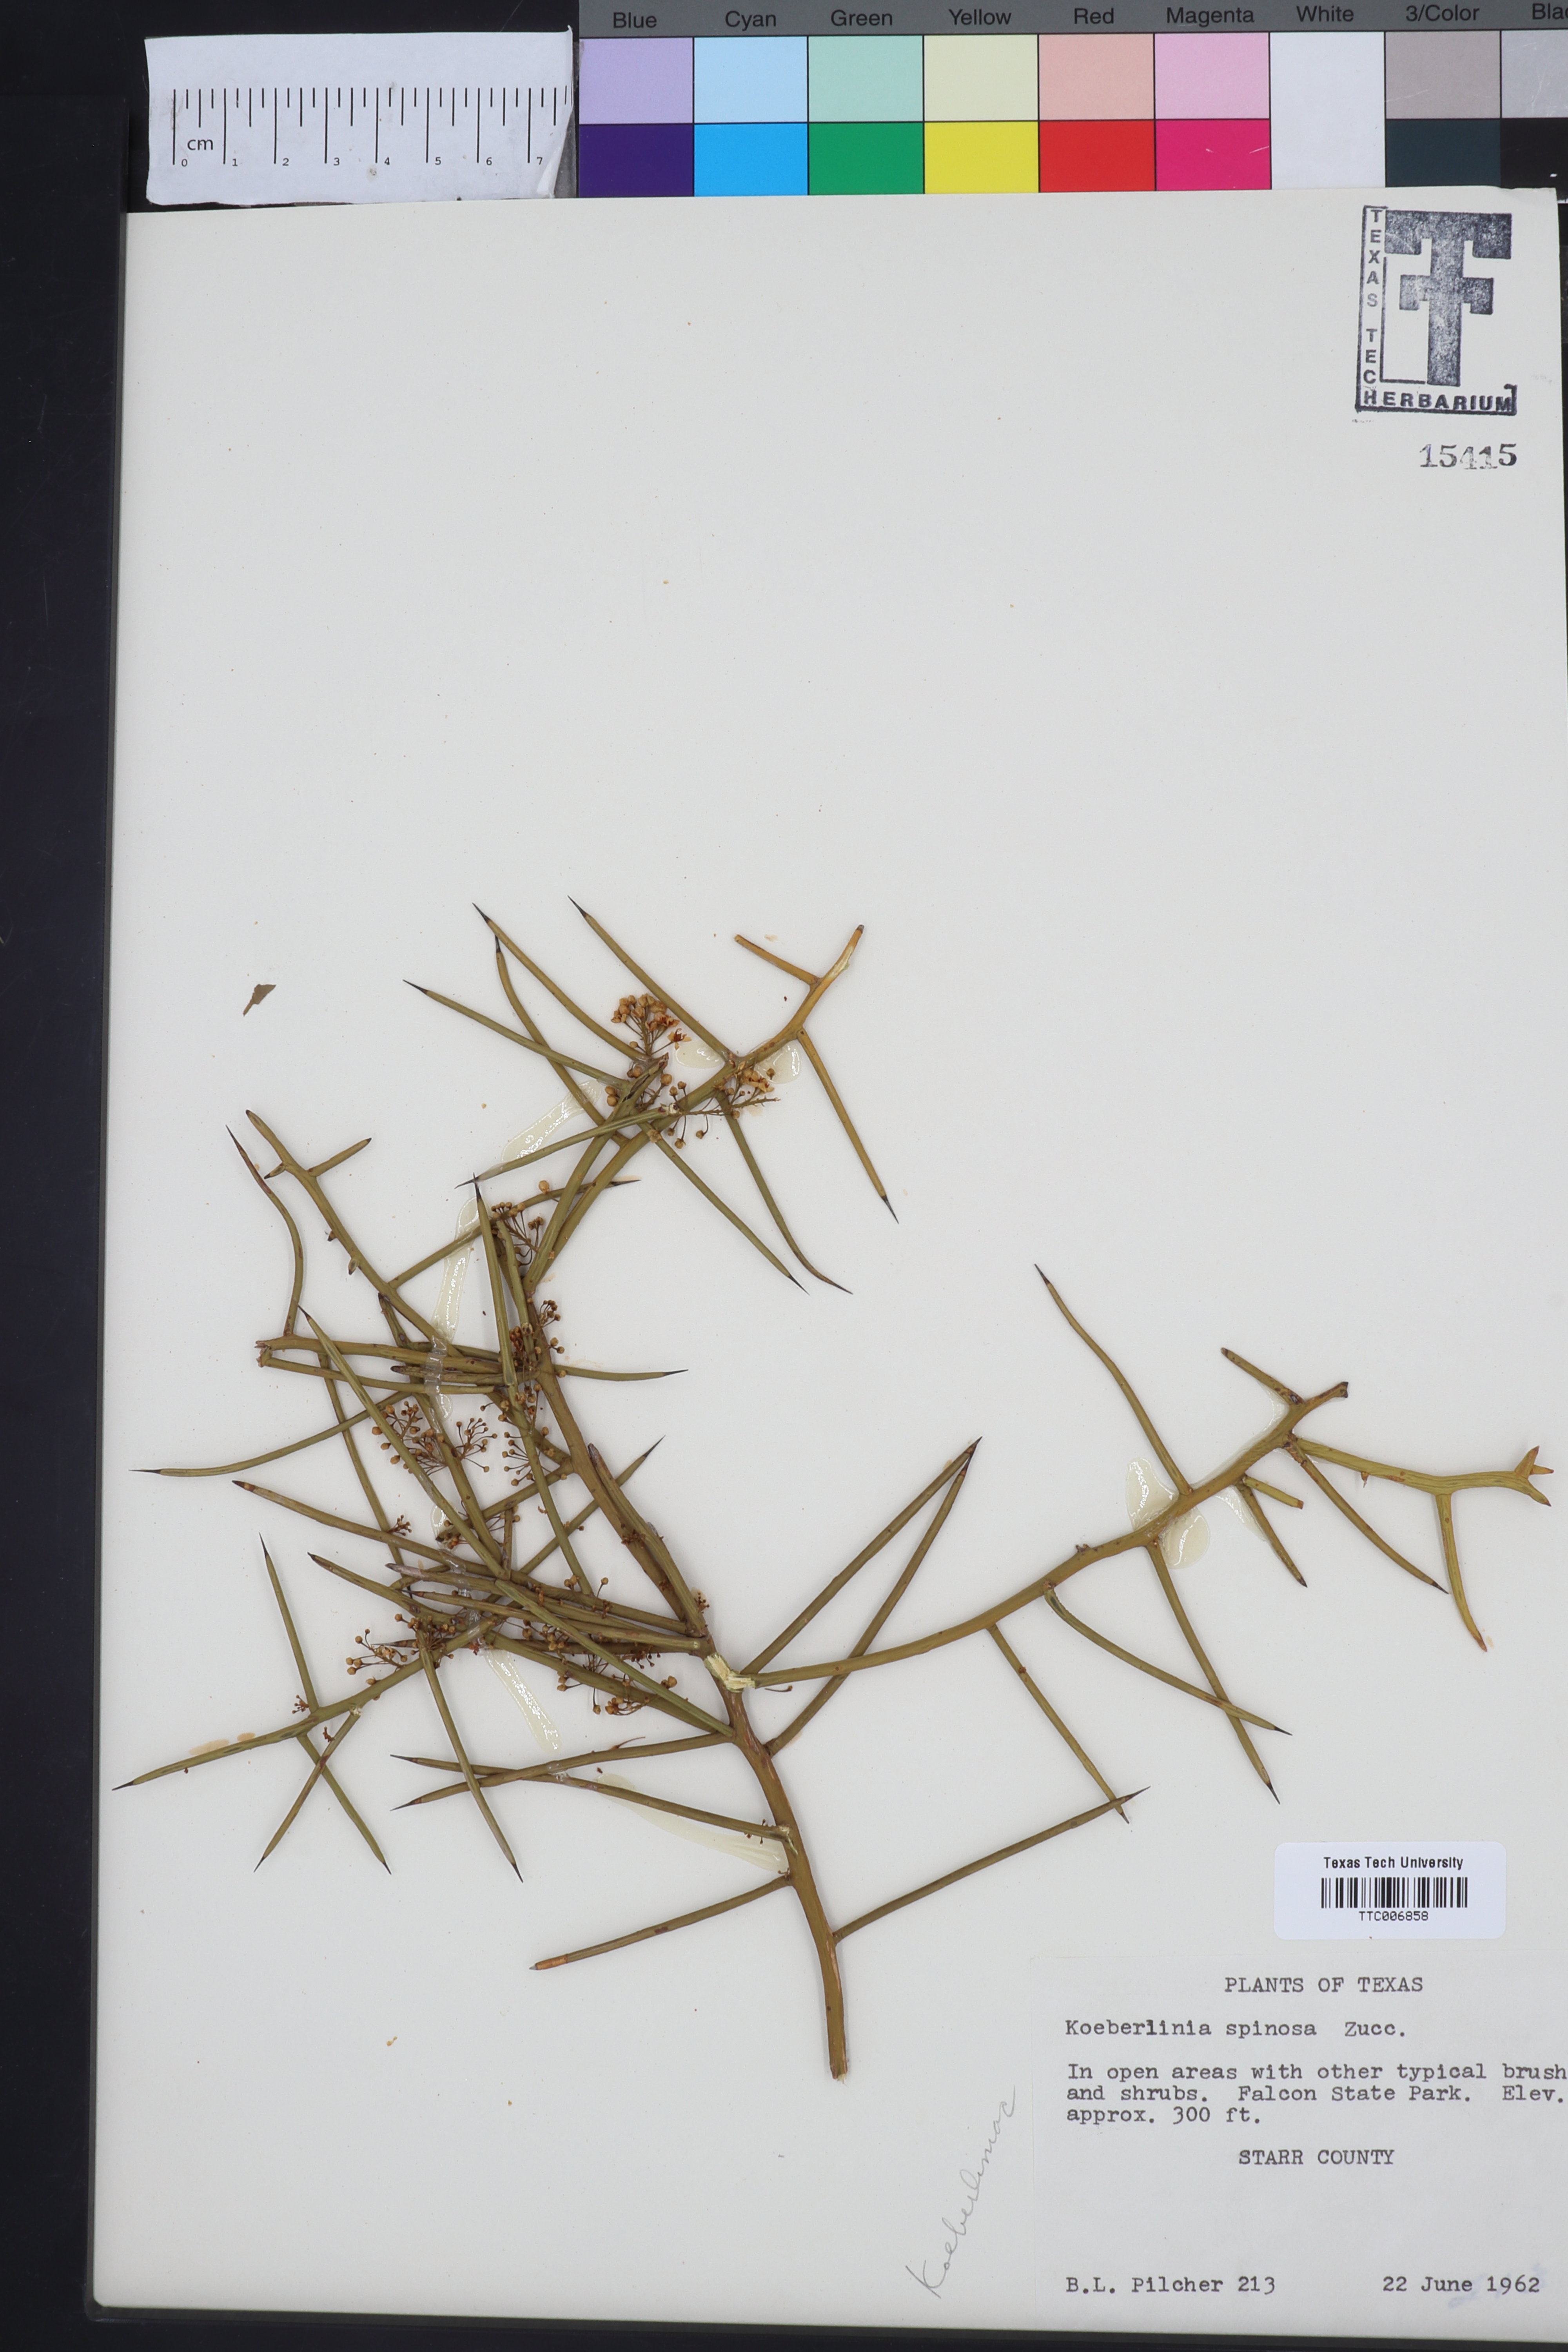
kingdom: Plantae
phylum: Tracheophyta
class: Magnoliopsida
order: Brassicales
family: Koeberliniaceae
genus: Koeberlinia
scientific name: Koeberlinia spinosa
